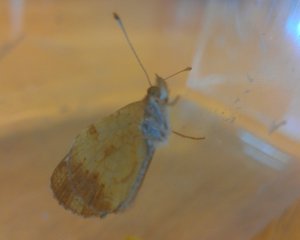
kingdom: Animalia
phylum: Arthropoda
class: Insecta
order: Lepidoptera
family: Nymphalidae
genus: Phyciodes
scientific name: Phyciodes tharos
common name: Northern Crescent
